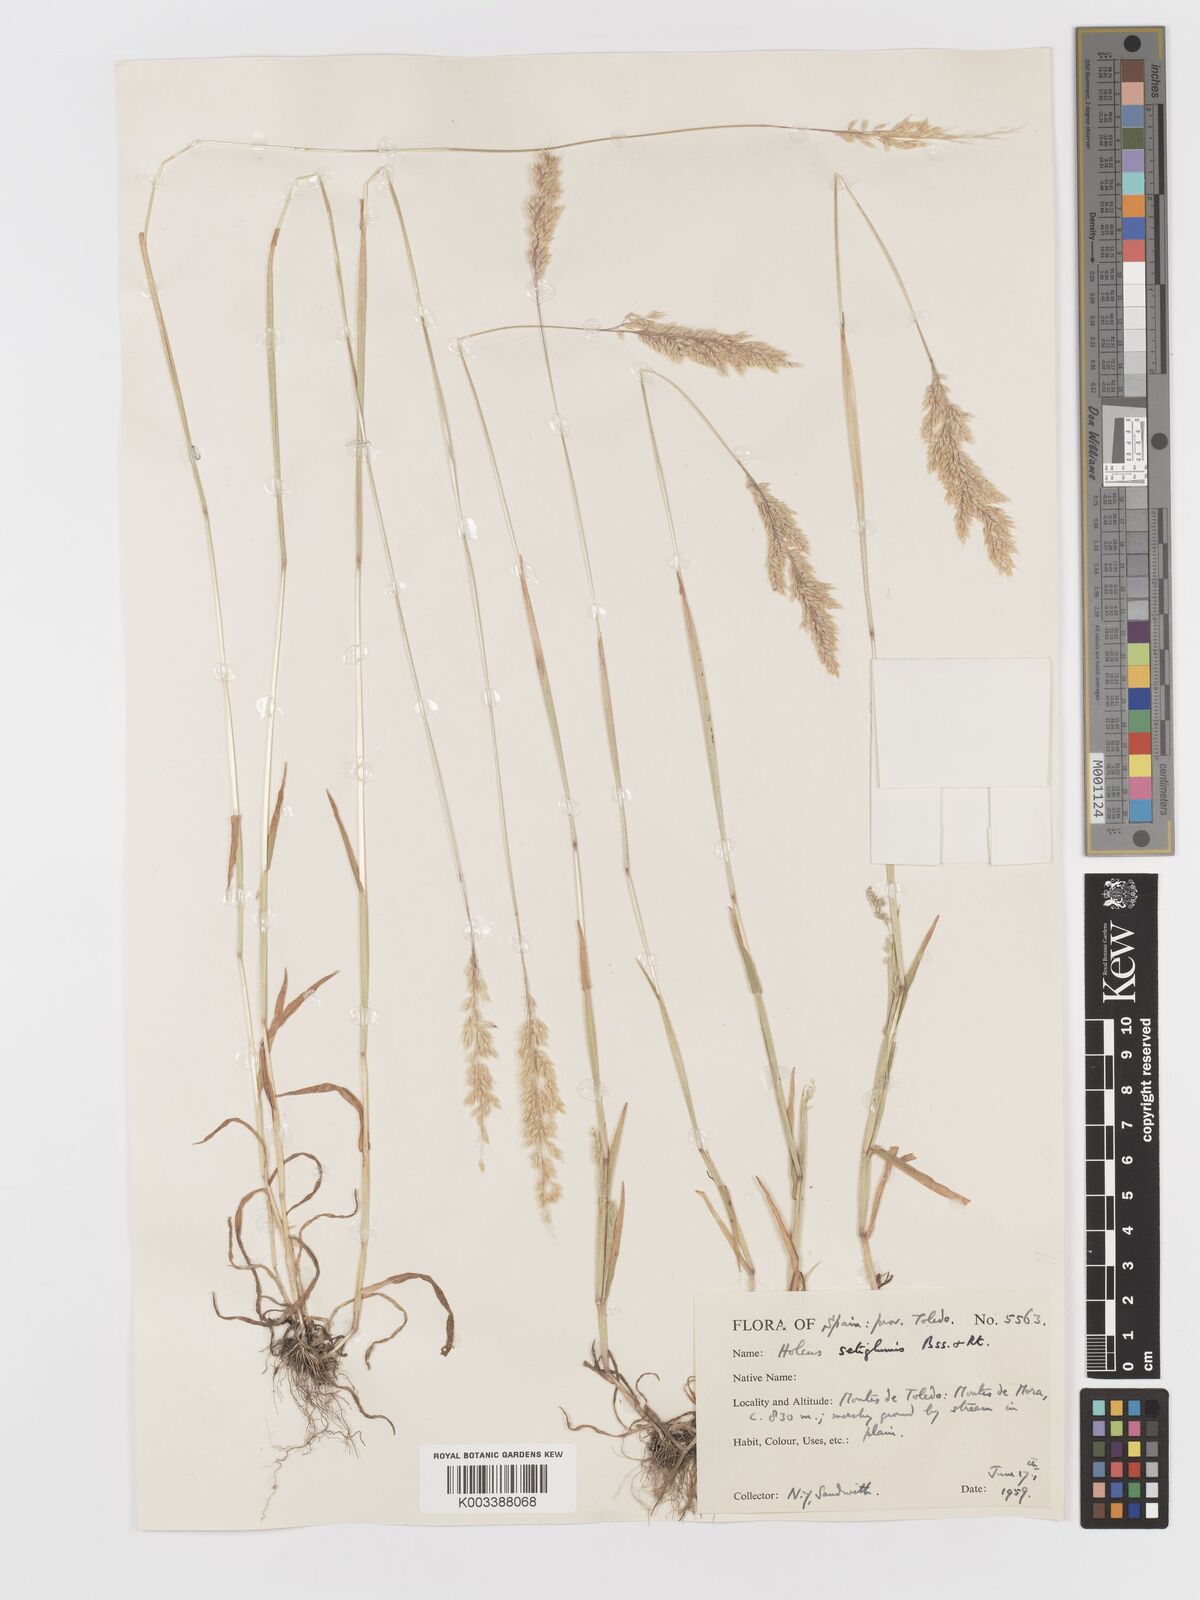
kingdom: Plantae
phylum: Tracheophyta
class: Liliopsida
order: Poales
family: Poaceae
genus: Holcus
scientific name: Holcus annuus
